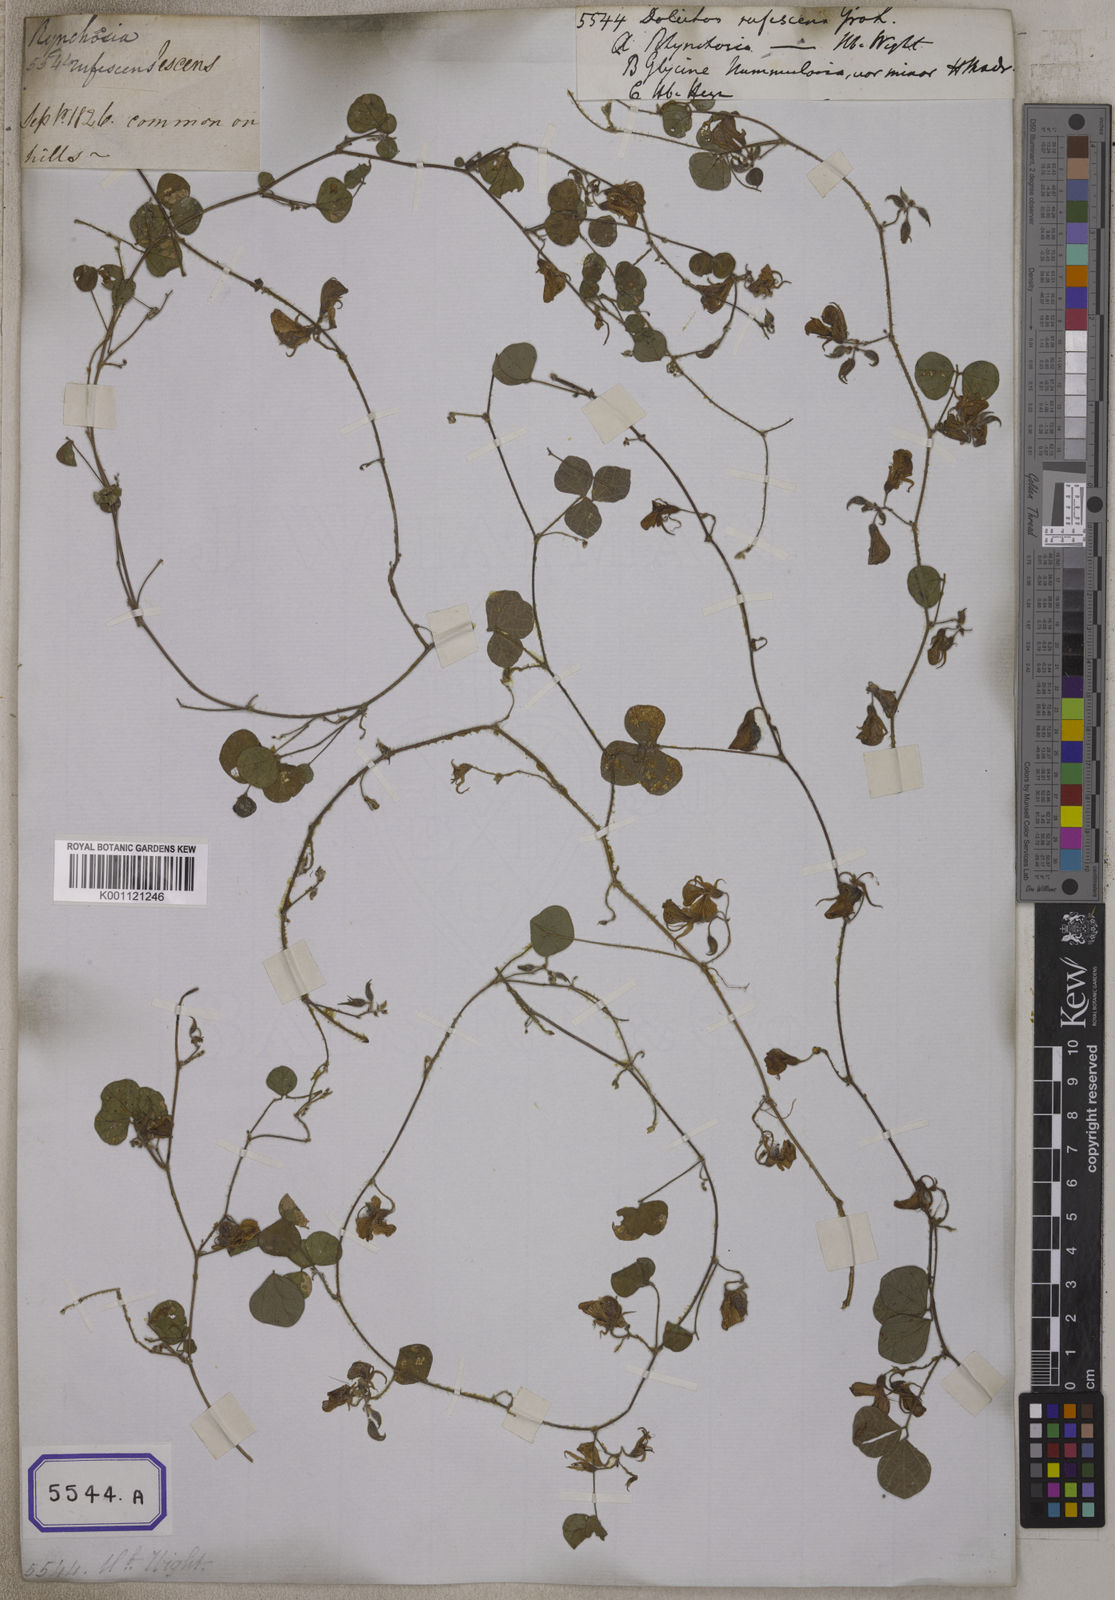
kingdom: Plantae
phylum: Tracheophyta
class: Magnoliopsida
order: Fabales
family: Fabaceae
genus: Rhynchosia
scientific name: Rhynchosia aurea
